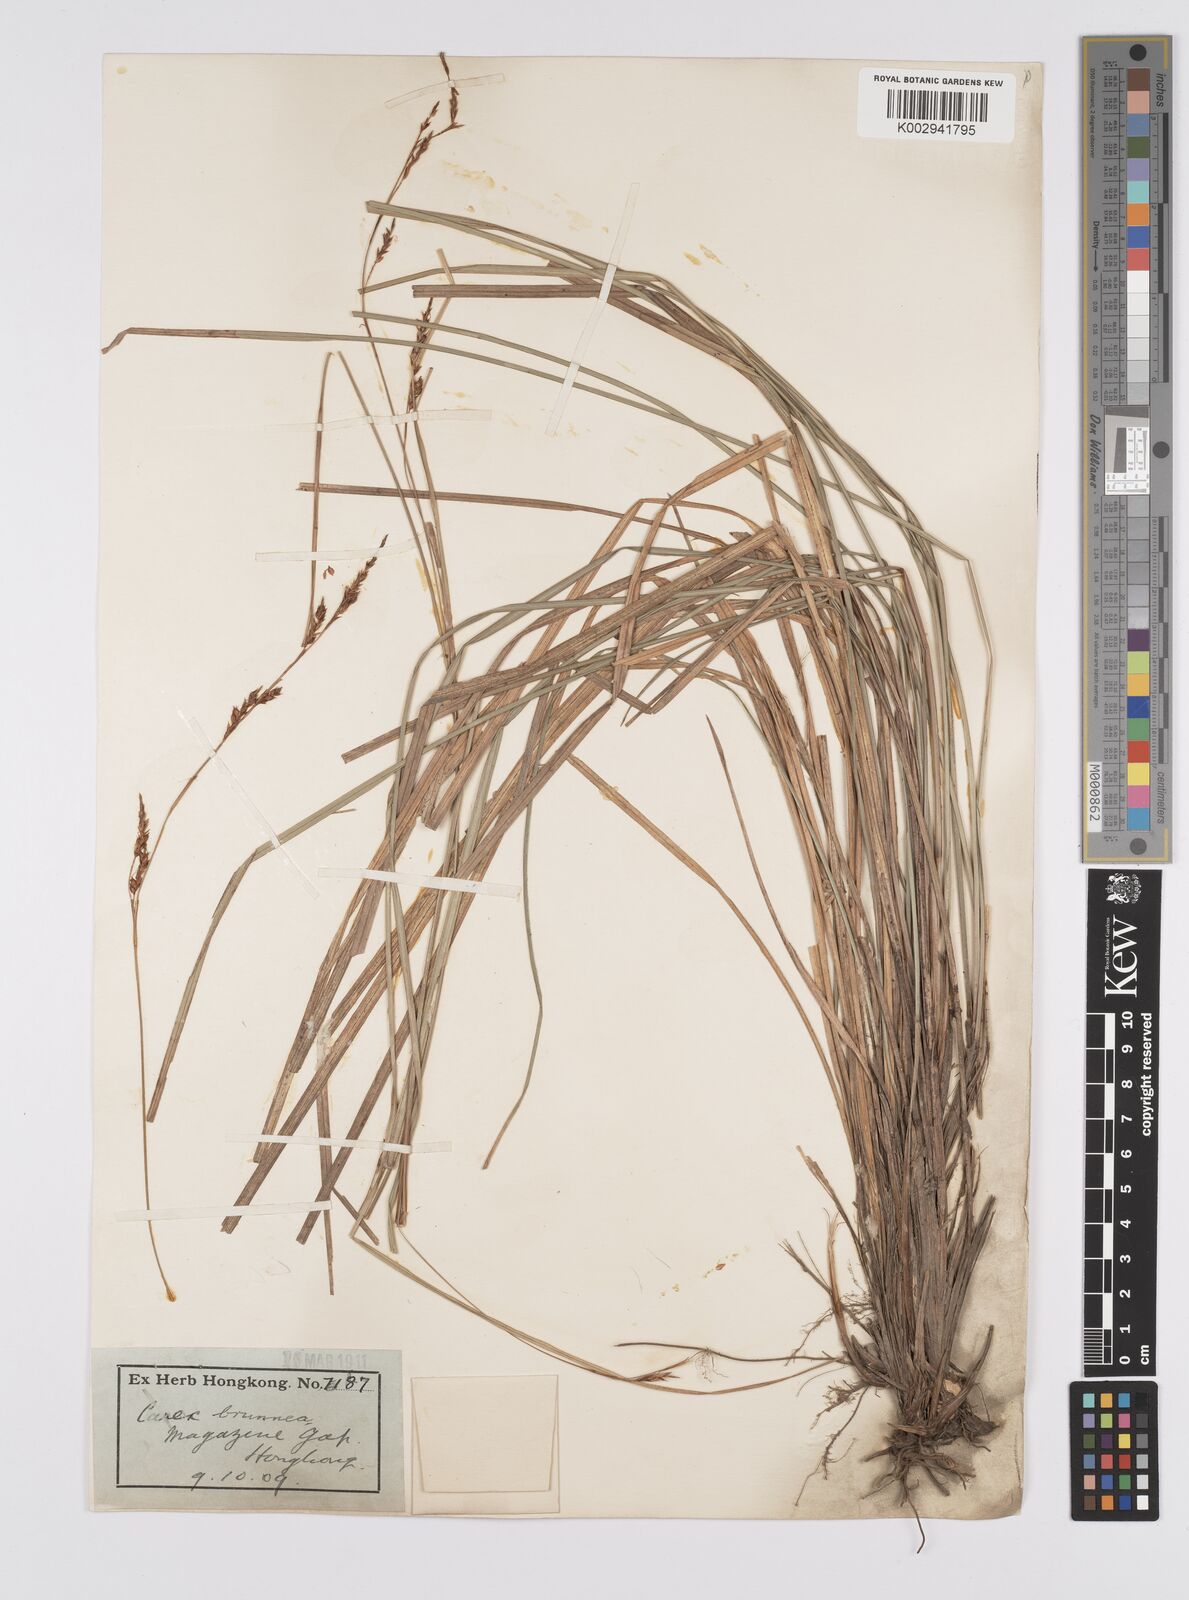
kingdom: Plantae
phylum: Tracheophyta
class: Liliopsida
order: Poales
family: Cyperaceae
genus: Carex
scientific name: Carex brunnea
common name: Greater brown sedge
